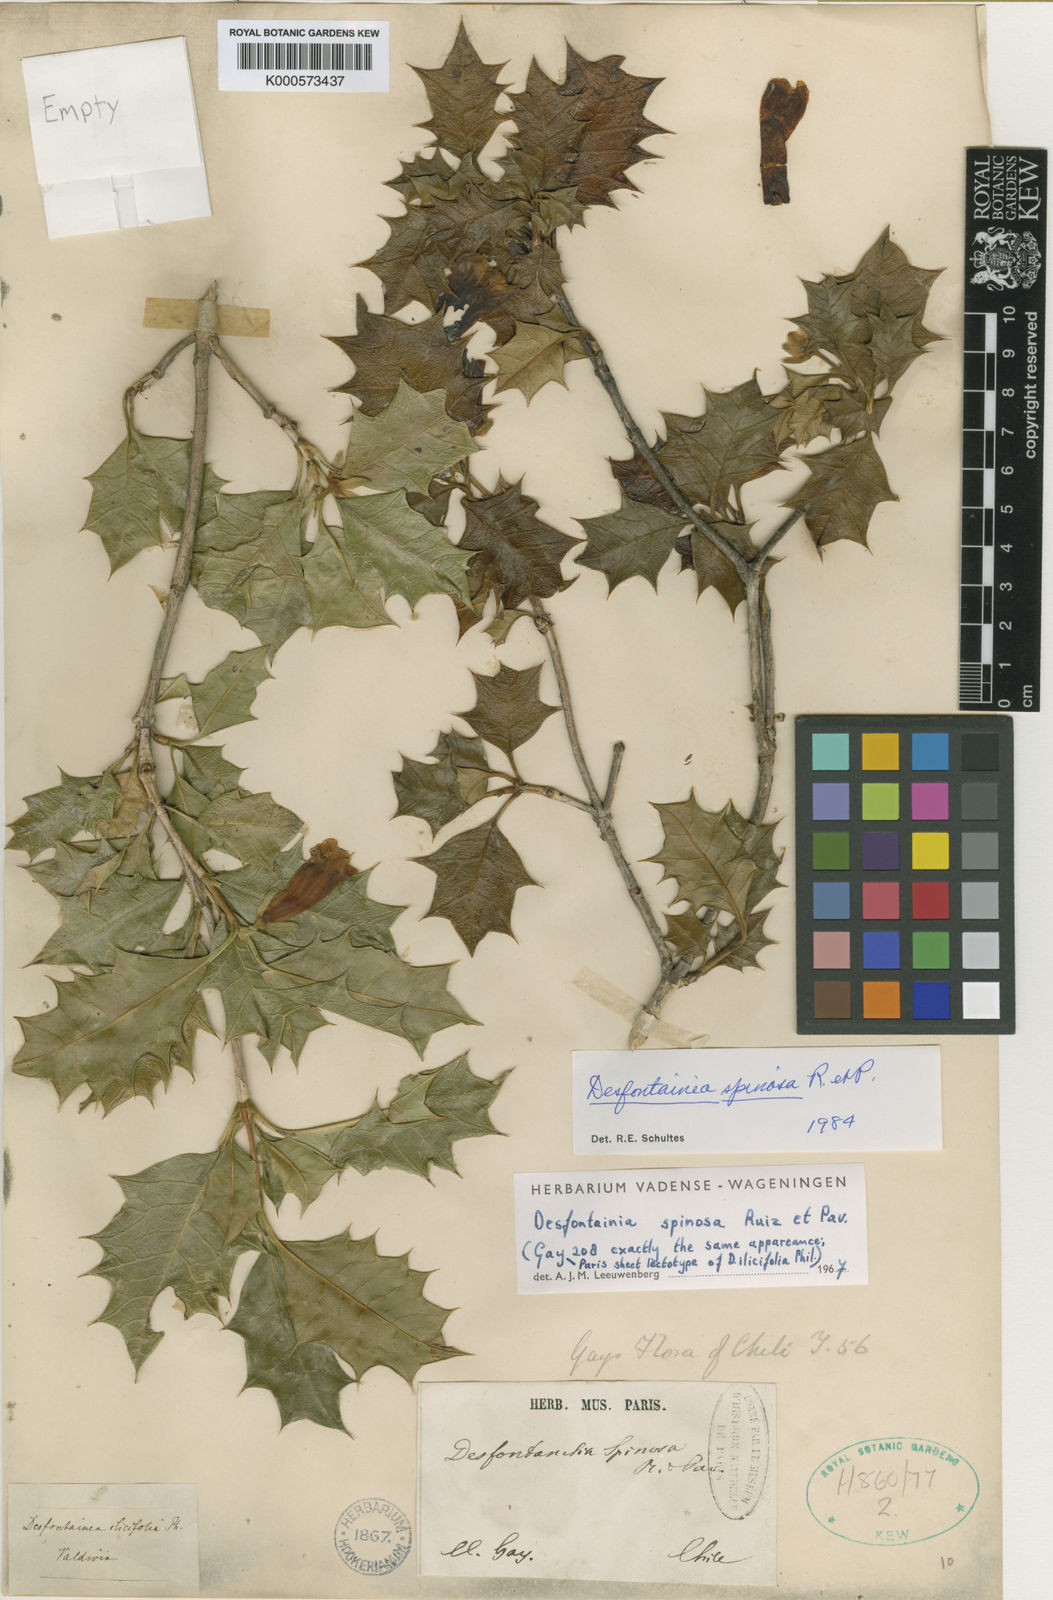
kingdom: Plantae
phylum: Tracheophyta
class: Magnoliopsida
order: Bruniales
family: Columelliaceae
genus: Desfontainia
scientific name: Desfontainia fulgens
